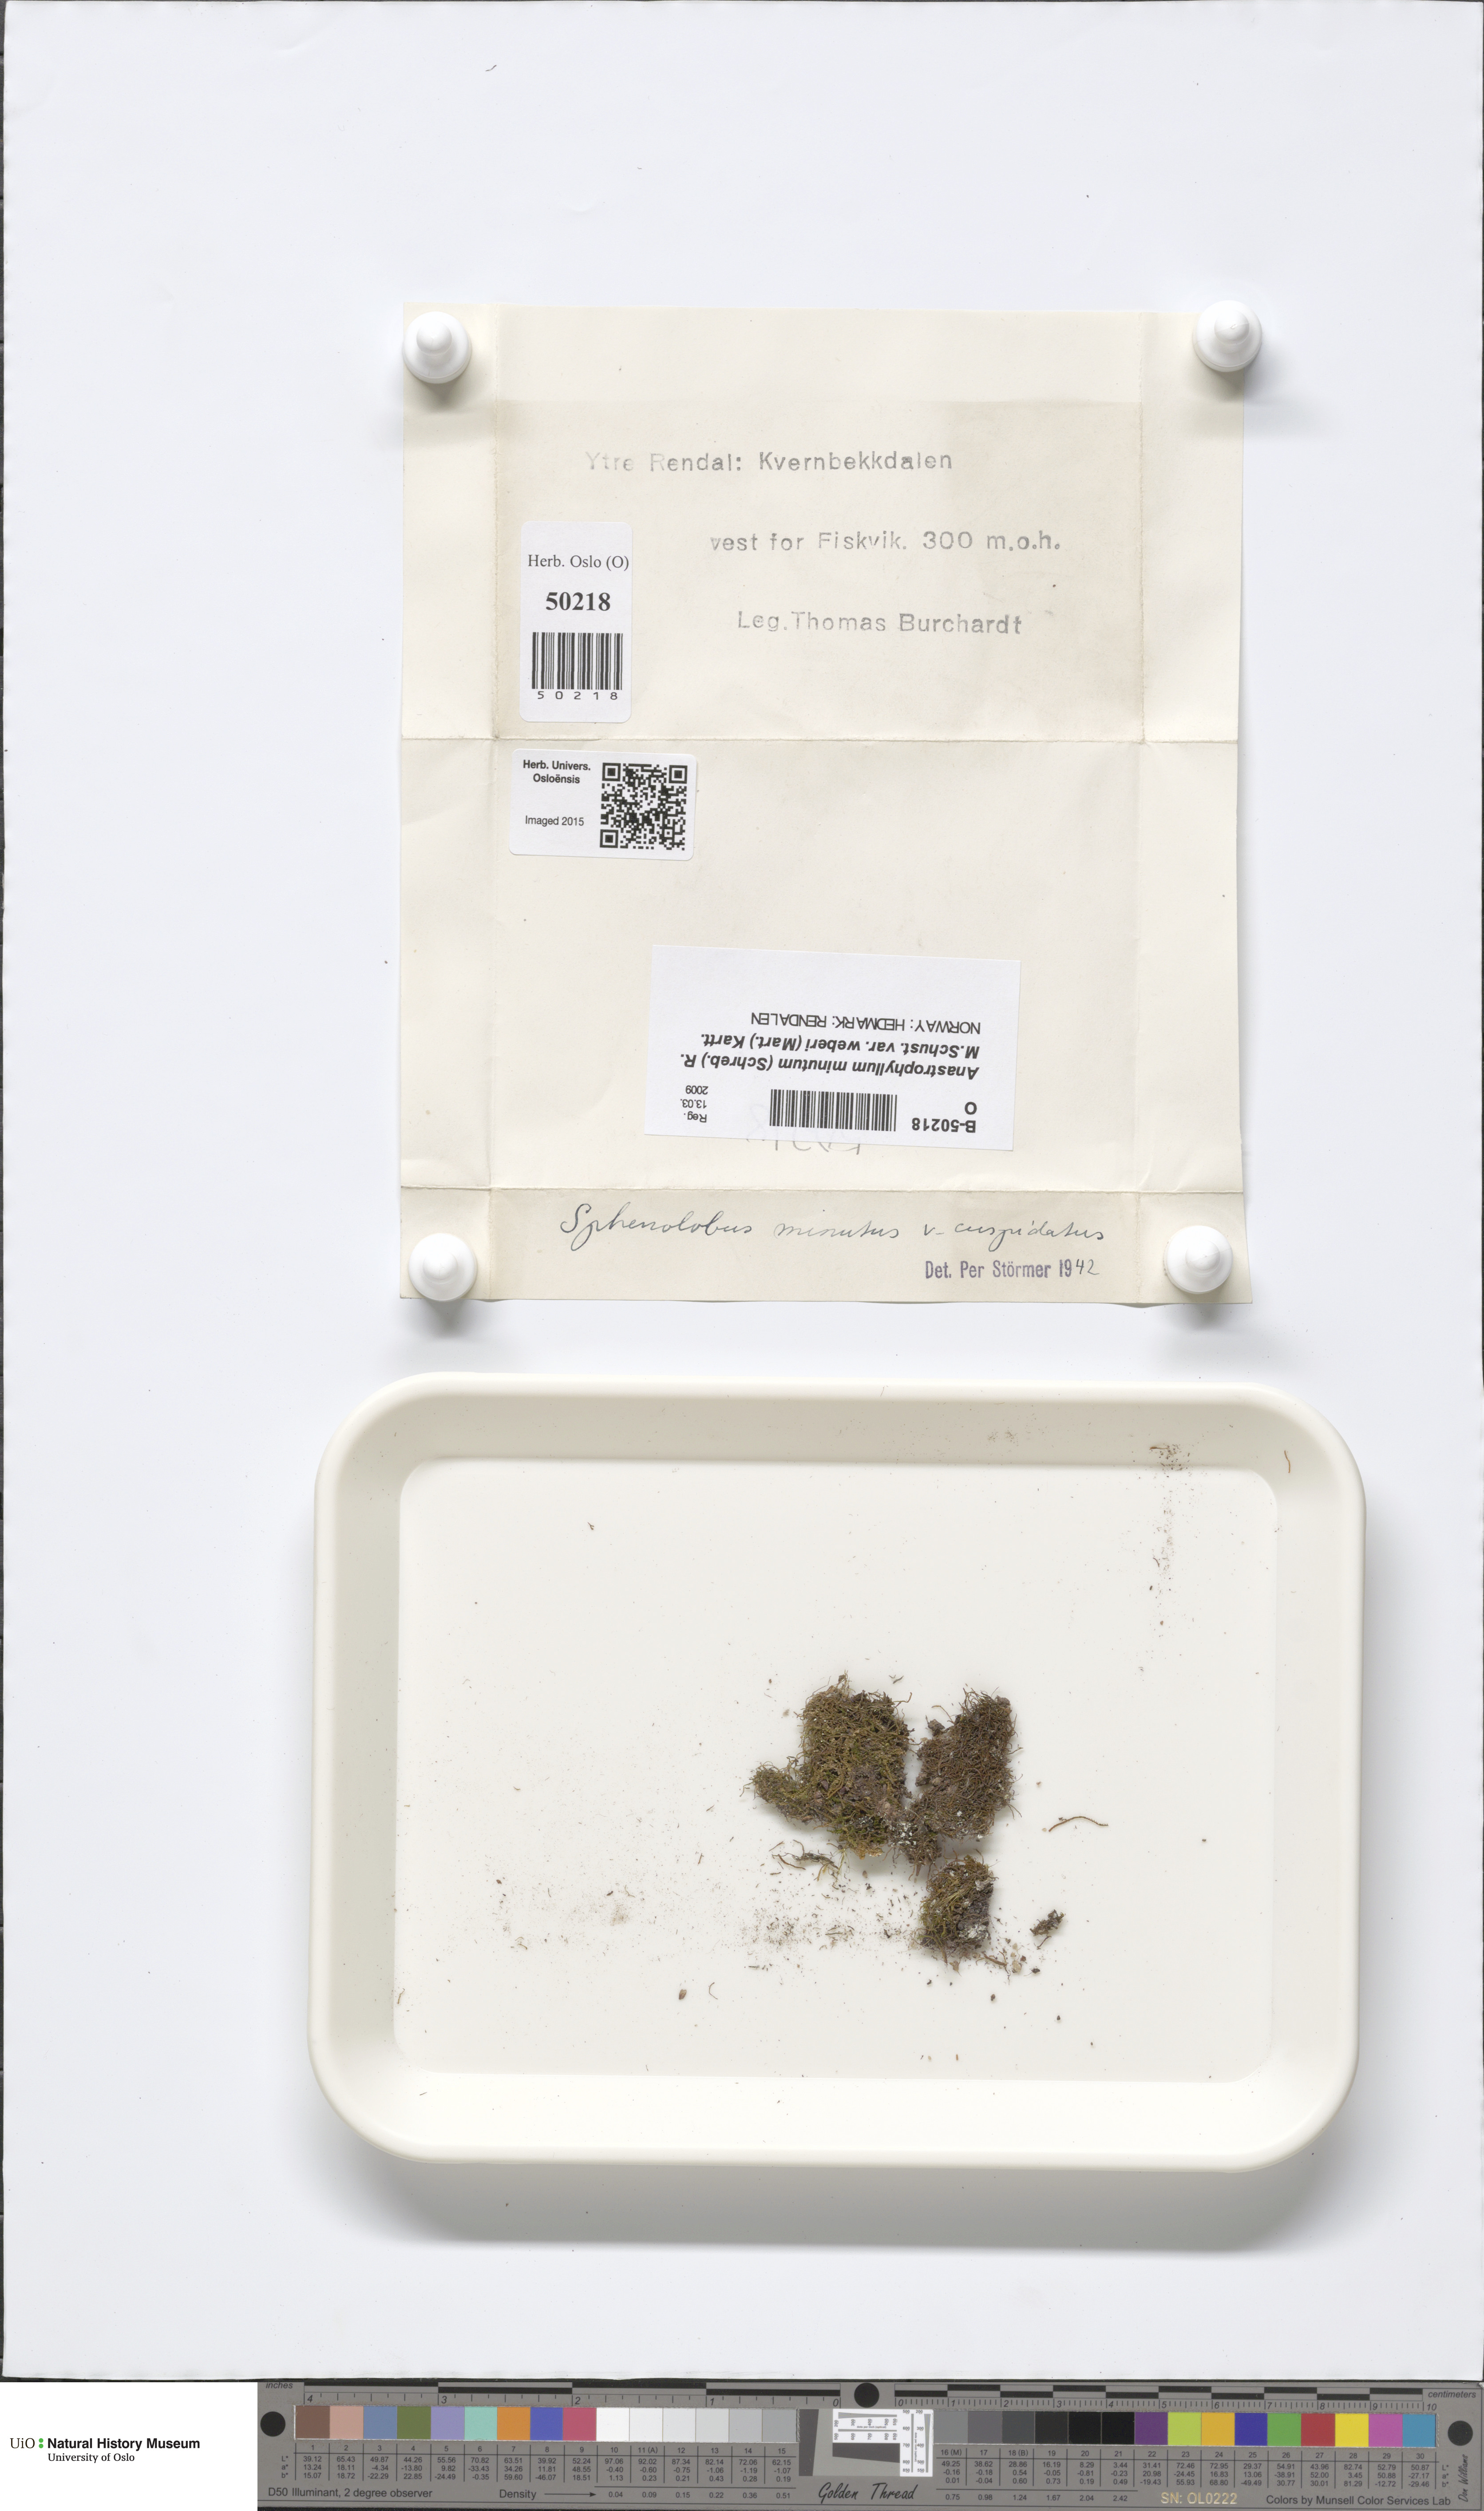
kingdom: Plantae
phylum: Marchantiophyta
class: Jungermanniopsida
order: Jungermanniales
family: Anastrophyllaceae
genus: Sphenolobus
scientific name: Sphenolobus minutus
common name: Comb notchwort
